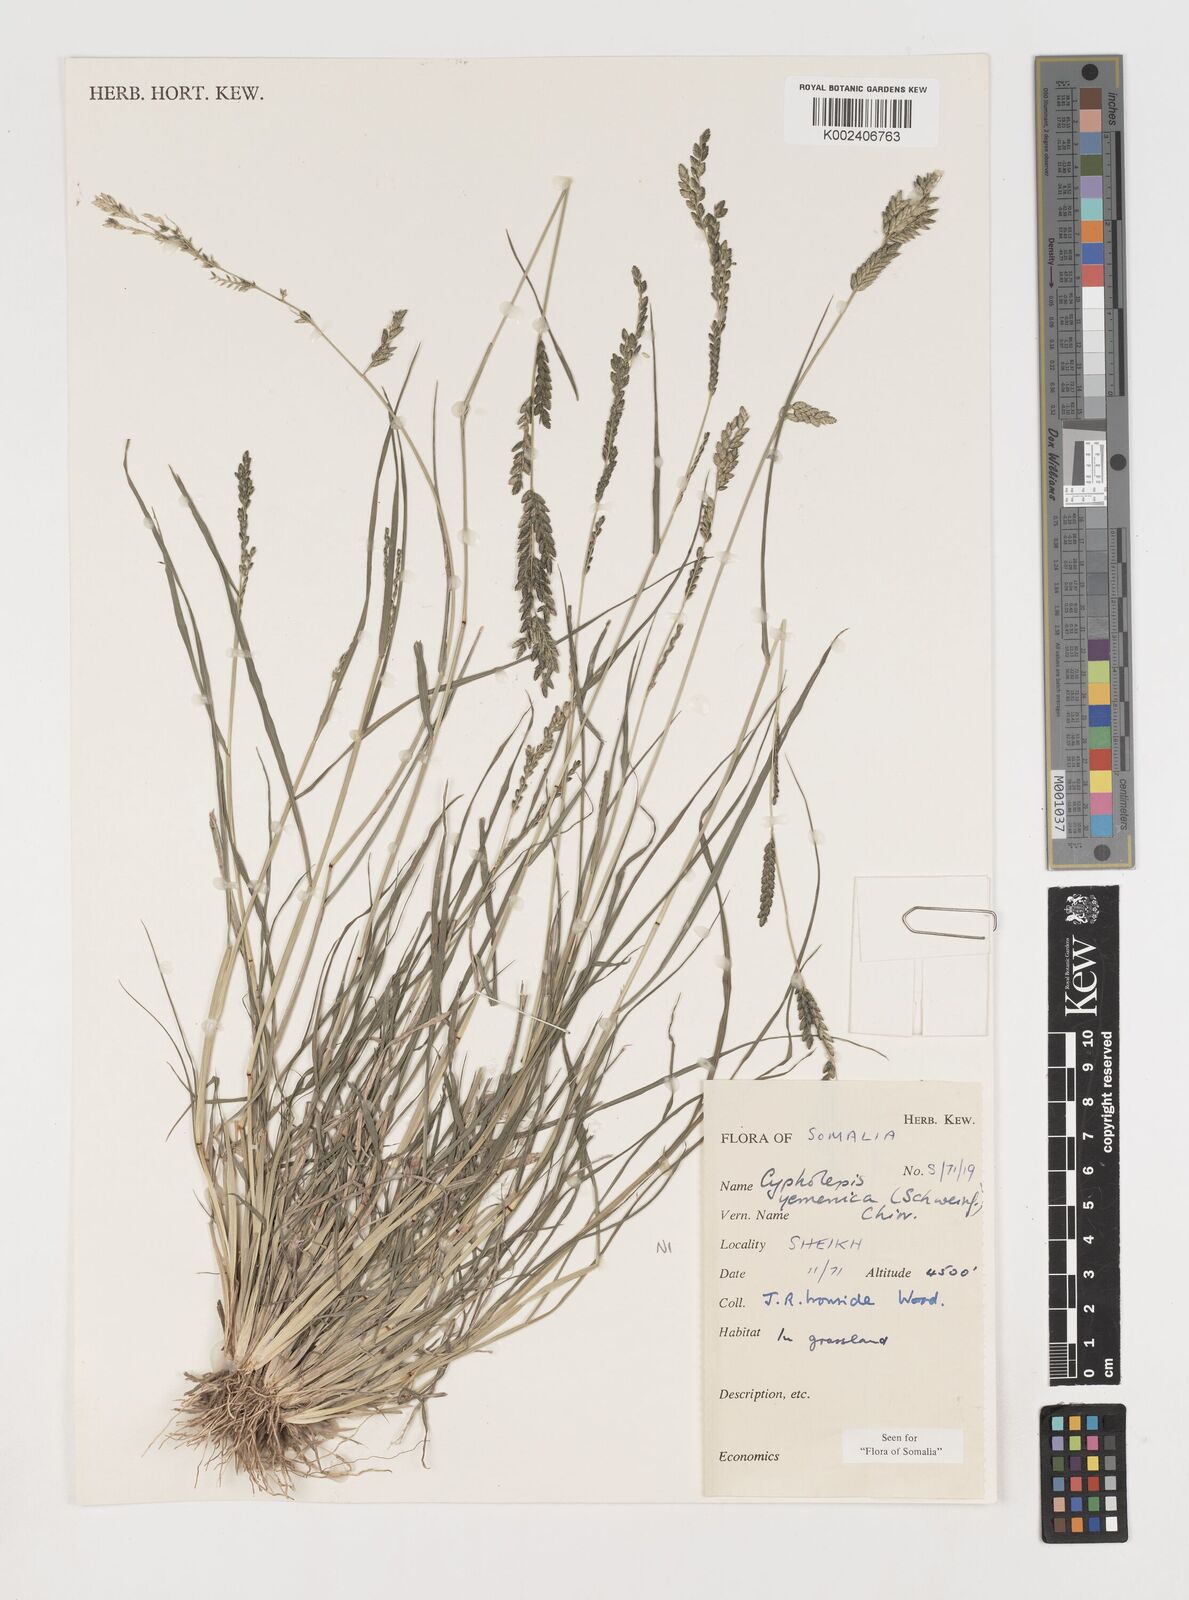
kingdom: Plantae
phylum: Tracheophyta
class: Liliopsida
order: Poales
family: Poaceae
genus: Disakisperma
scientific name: Disakisperma yemenicum
